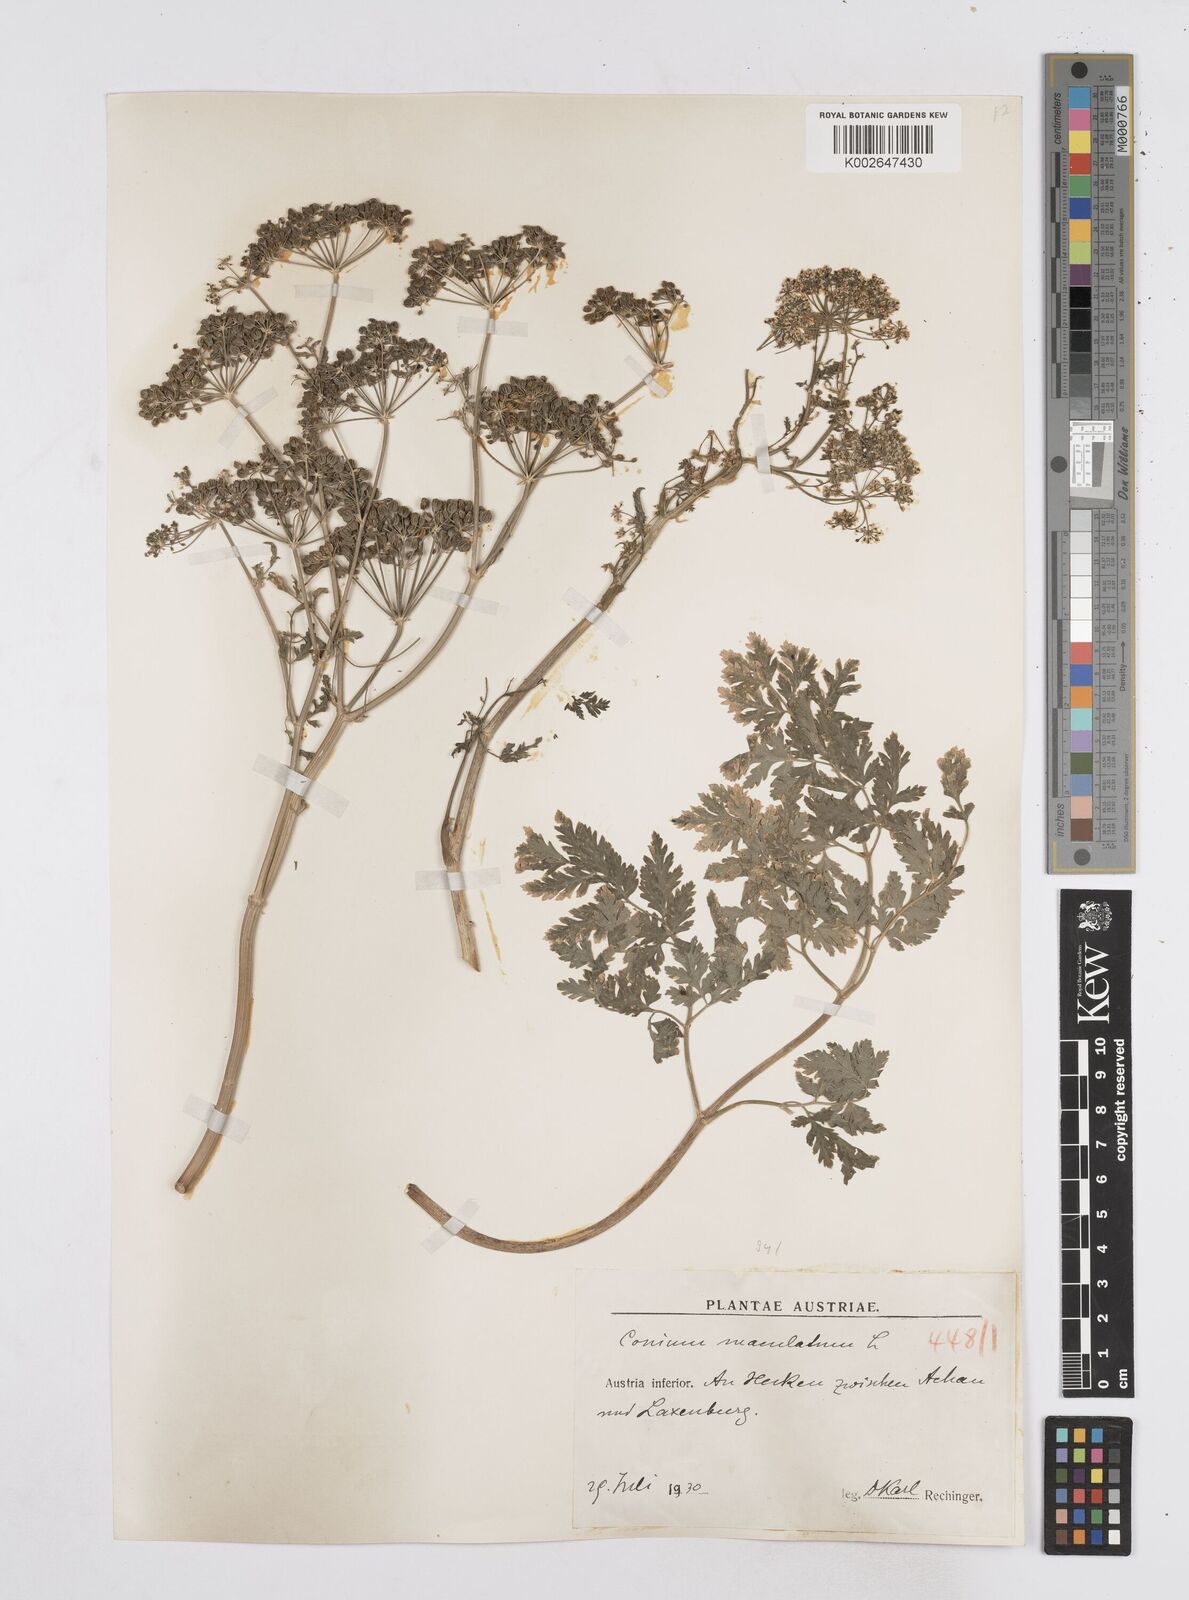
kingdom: Plantae
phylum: Tracheophyta
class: Magnoliopsida
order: Apiales
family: Apiaceae
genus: Conium
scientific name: Conium maculatum
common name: Hemlock
